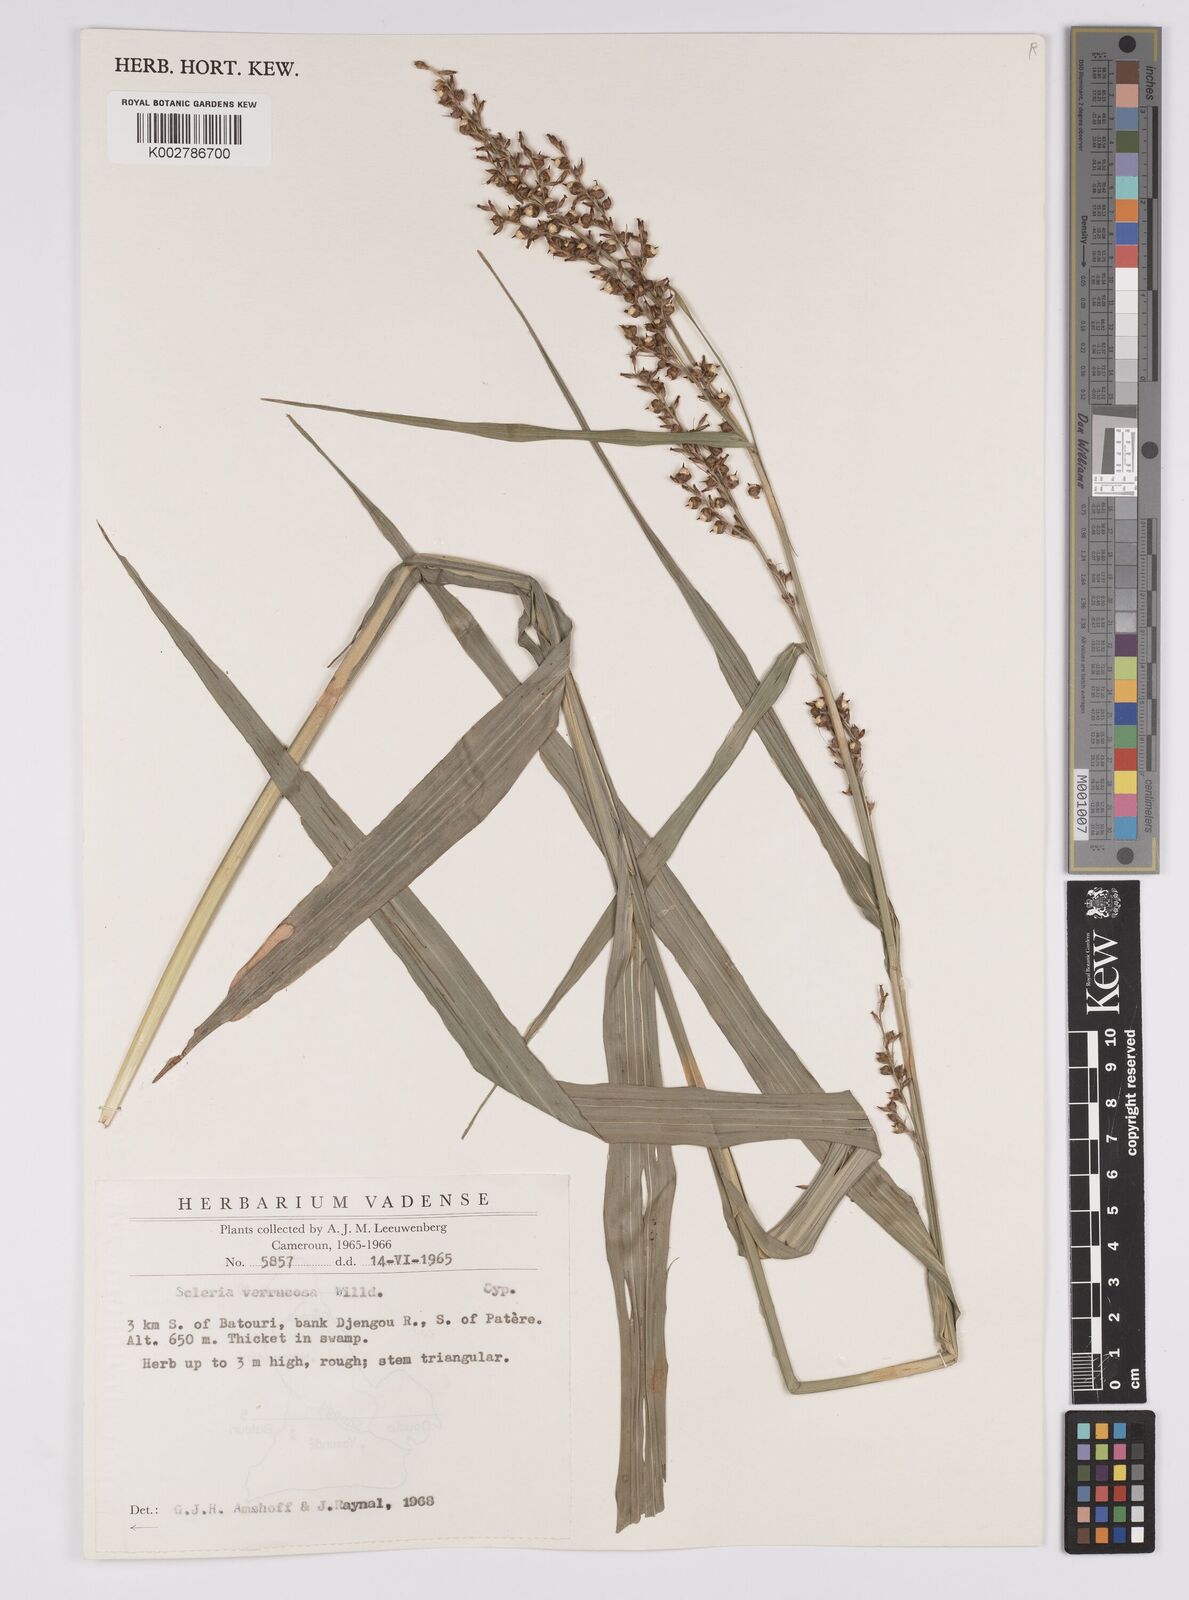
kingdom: Plantae
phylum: Tracheophyta
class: Liliopsida
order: Poales
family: Cyperaceae
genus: Scleria
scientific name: Scleria verrucosa
